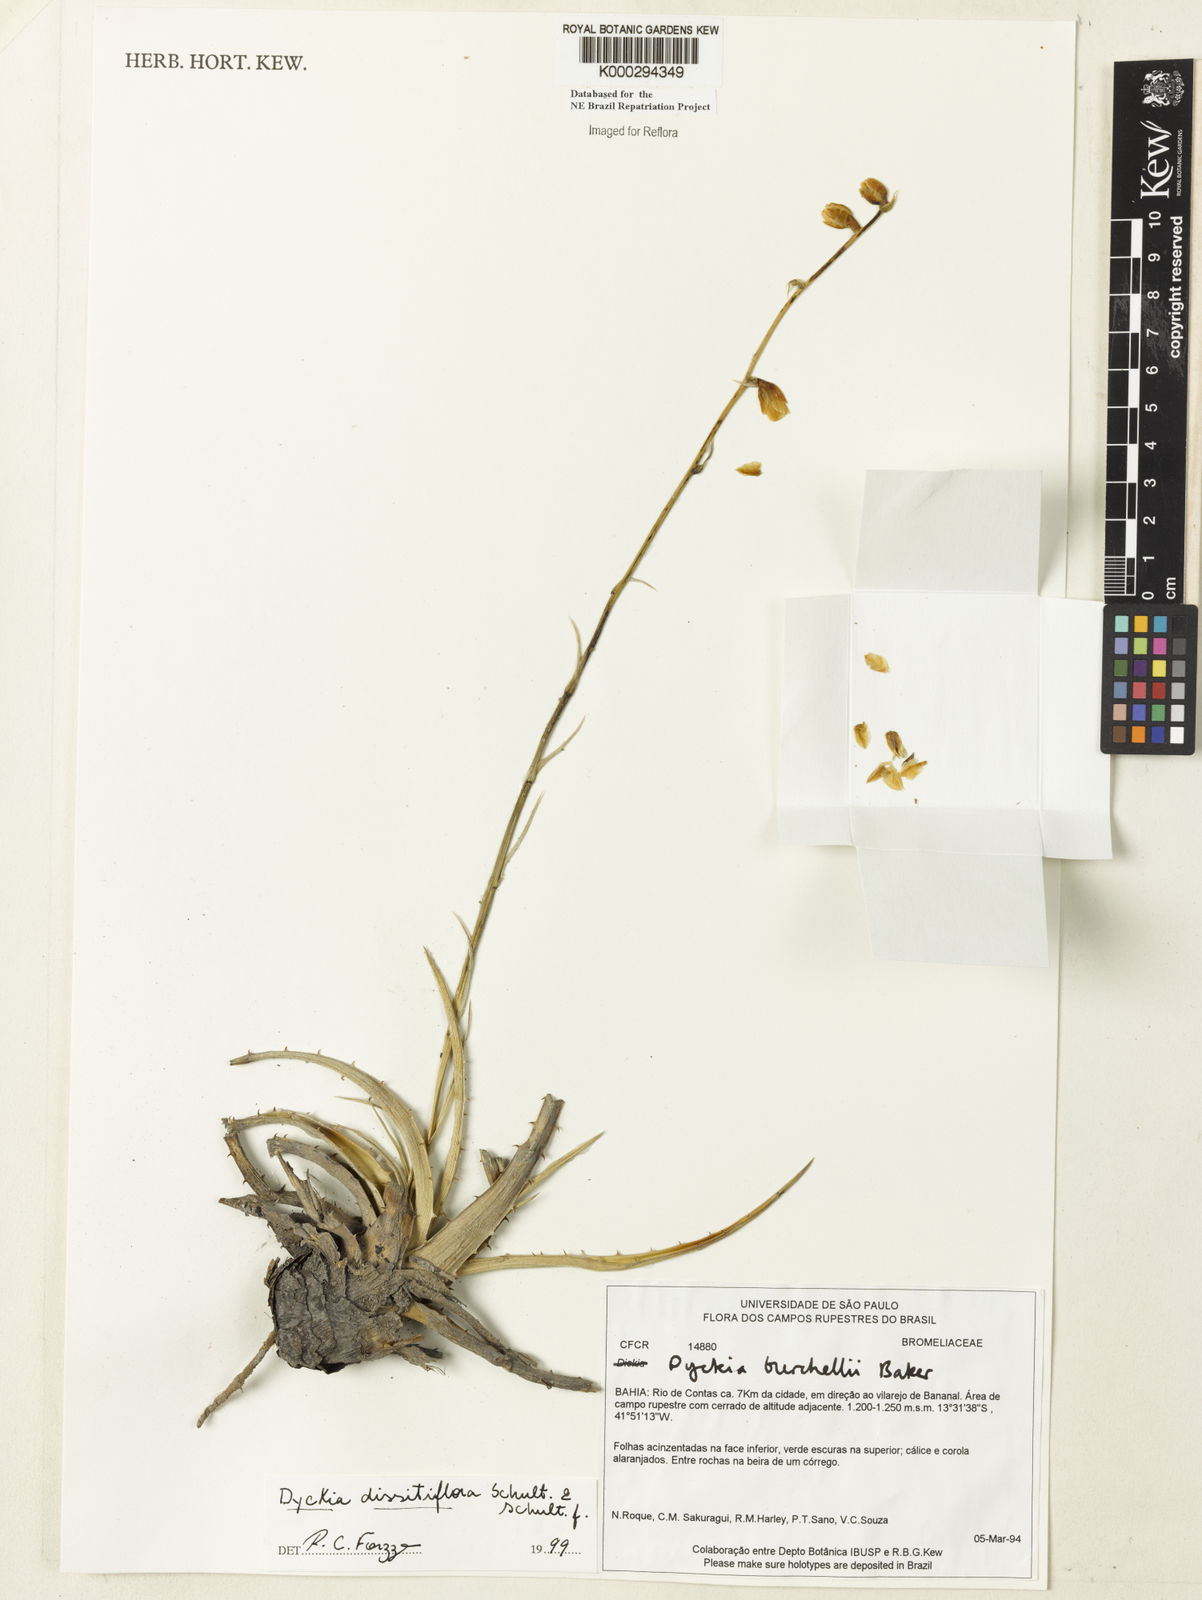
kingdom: Plantae
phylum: Tracheophyta
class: Liliopsida
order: Poales
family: Bromeliaceae
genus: Dyckia
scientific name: Dyckia dissitiflora
